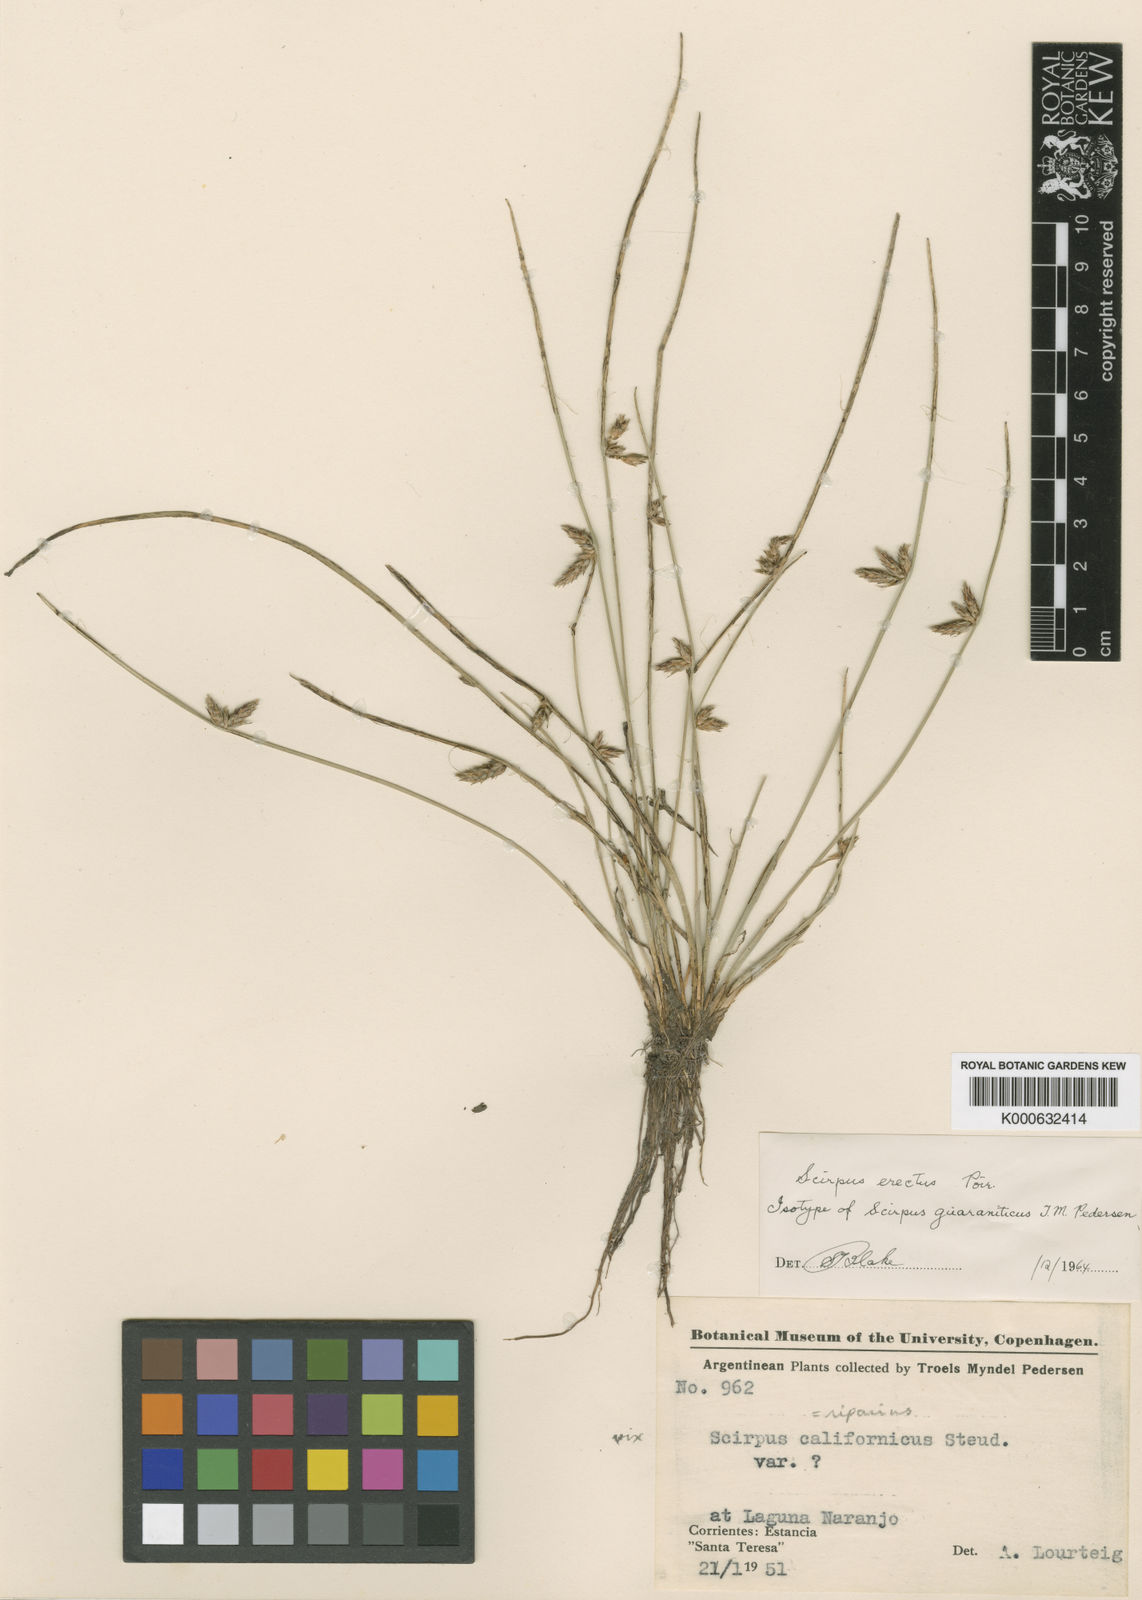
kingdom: Plantae
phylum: Tracheophyta
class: Liliopsida
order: Poales
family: Cyperaceae
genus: Schoenoplectiella
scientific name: Schoenoplectiella erecta
